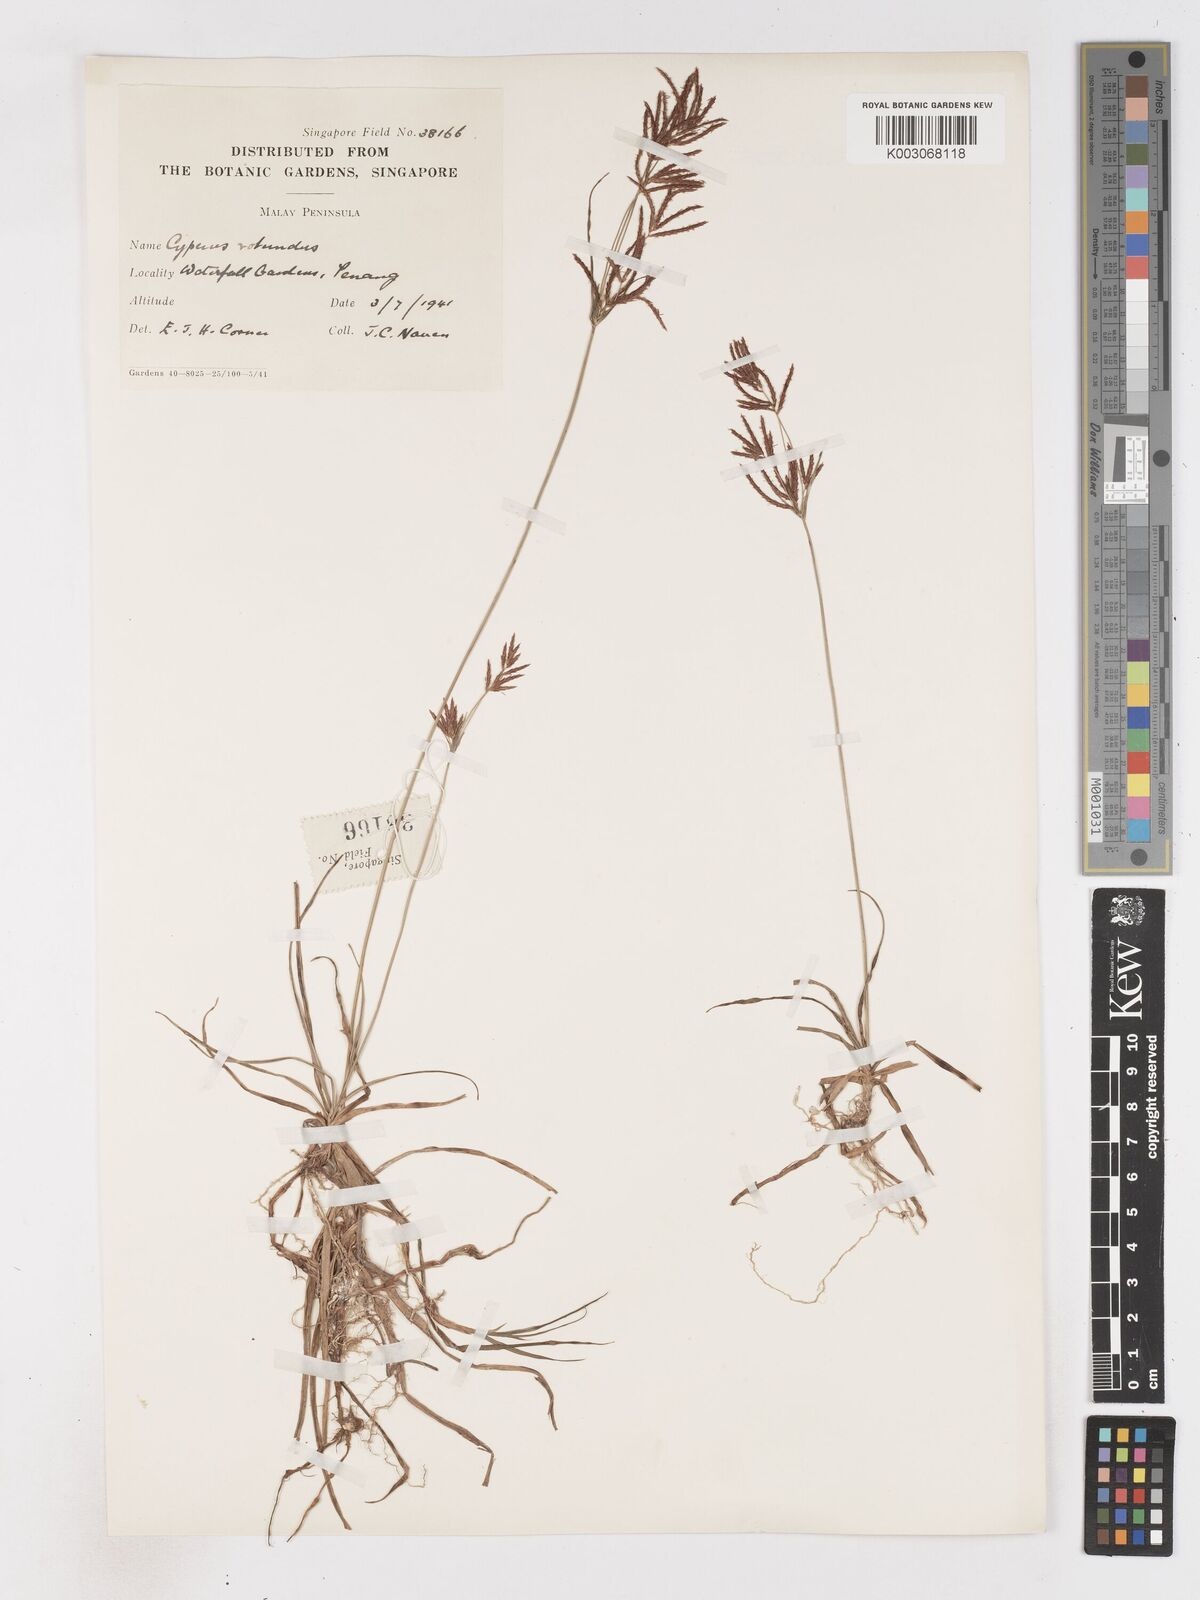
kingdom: Plantae
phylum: Tracheophyta
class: Liliopsida
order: Poales
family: Cyperaceae
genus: Cyperus
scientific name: Cyperus rotundus
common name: Nutgrass
